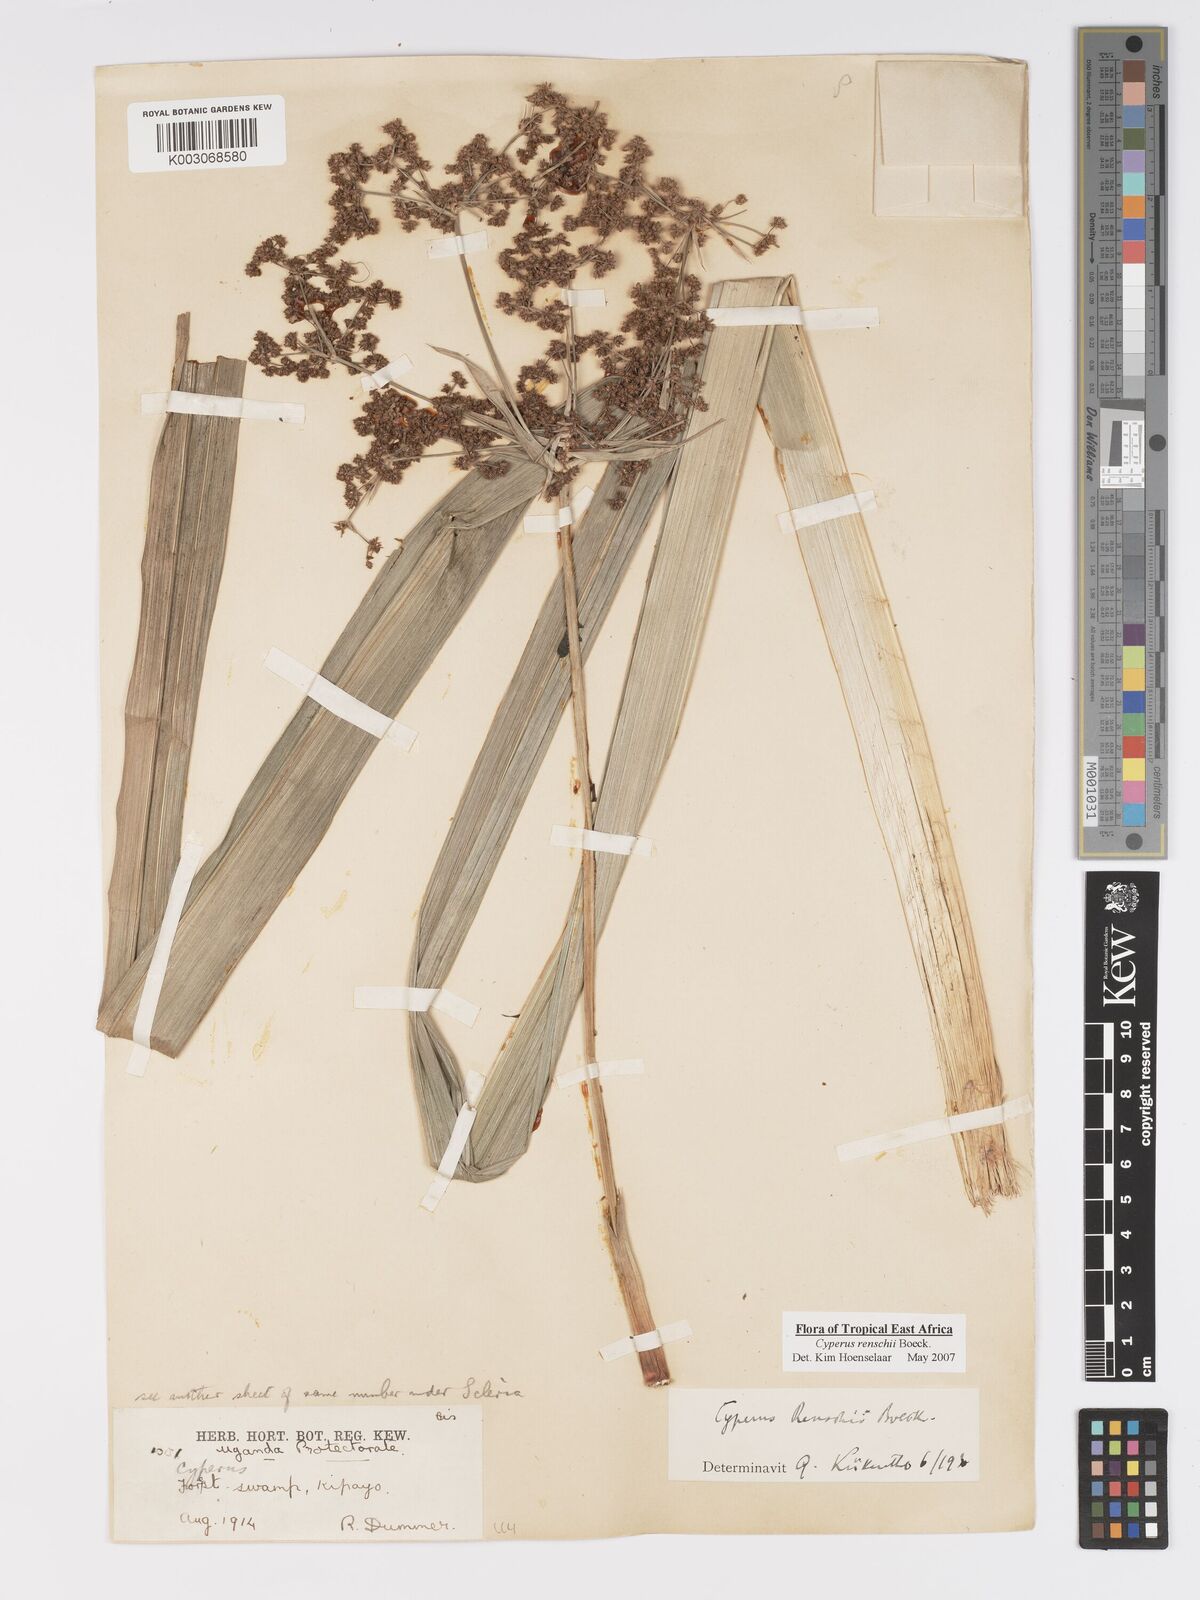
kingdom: Plantae
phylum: Tracheophyta
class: Liliopsida
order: Poales
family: Cyperaceae
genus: Cyperus
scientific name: Cyperus renschii
